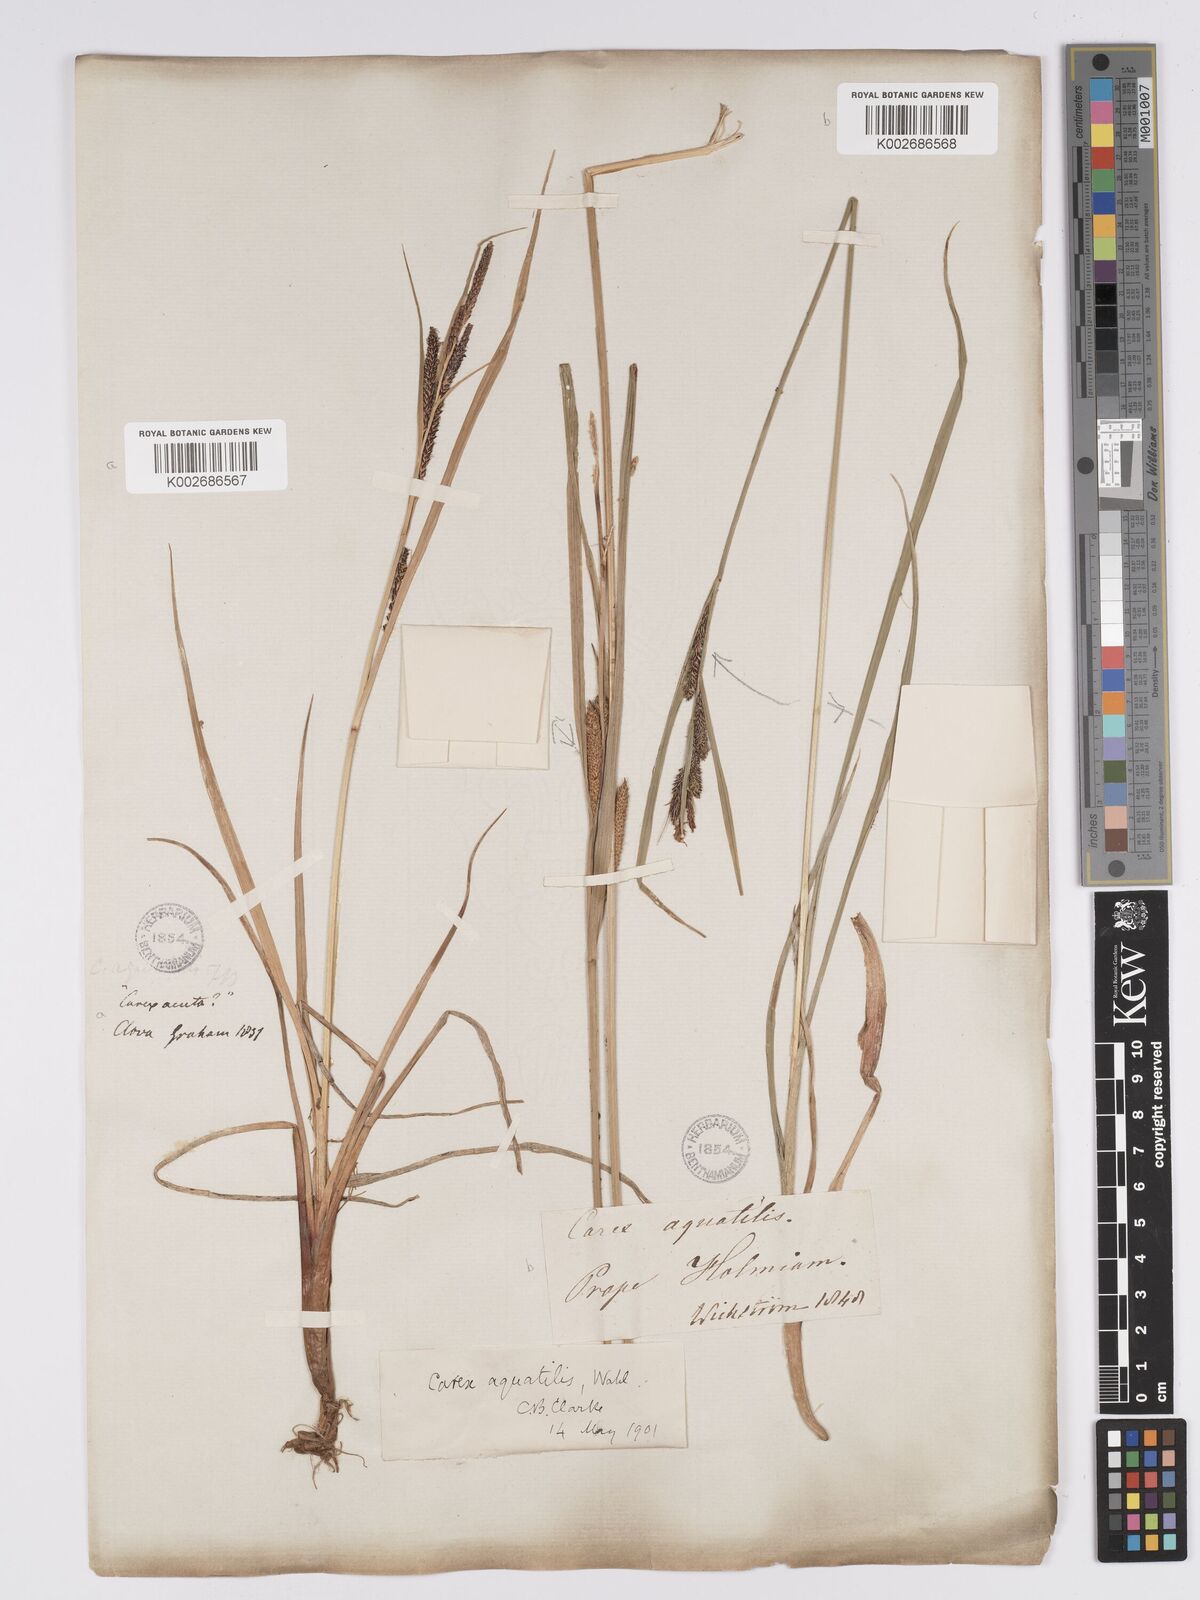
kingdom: Plantae
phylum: Tracheophyta
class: Liliopsida
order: Poales
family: Cyperaceae
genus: Carex
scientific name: Carex aquatilis
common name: Water sedge
